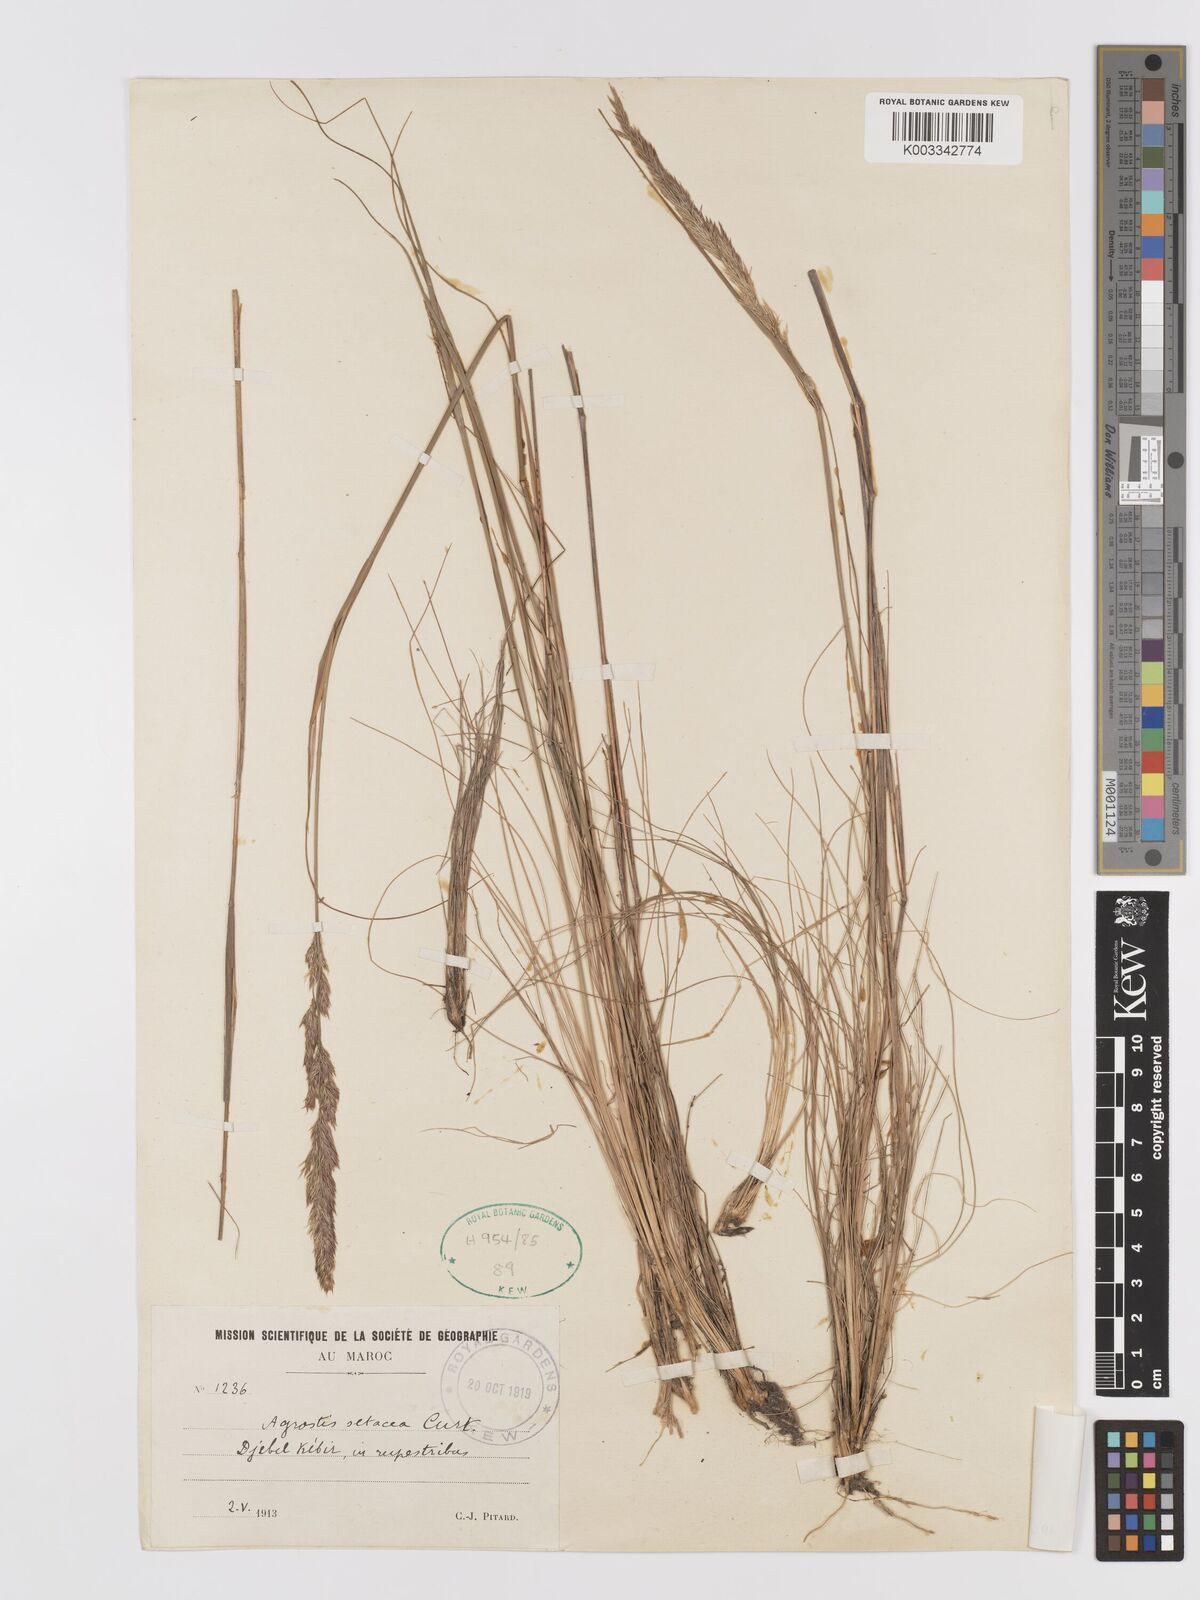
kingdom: Plantae
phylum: Tracheophyta
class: Liliopsida
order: Poales
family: Poaceae
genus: Alpagrostis
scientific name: Alpagrostis setacea
